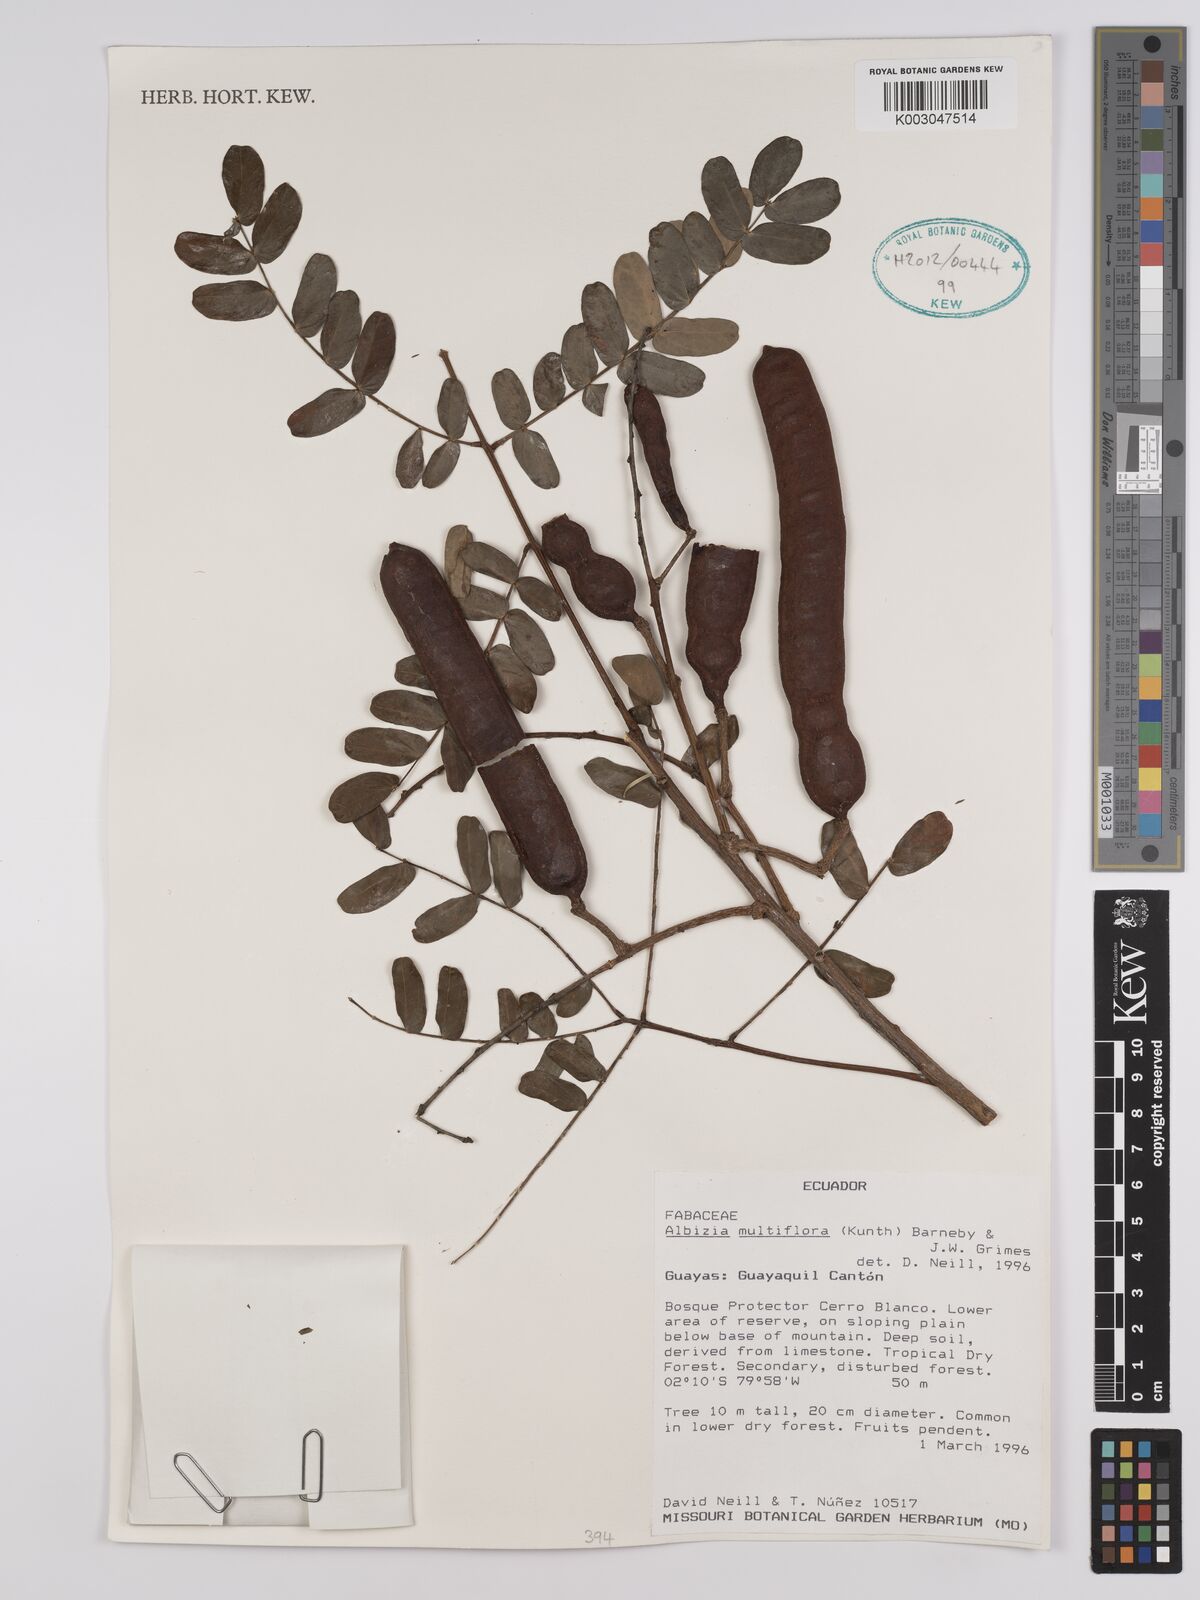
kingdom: Plantae
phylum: Tracheophyta
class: Magnoliopsida
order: Fabales
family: Fabaceae
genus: Albizia
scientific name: Albizia multiflora
